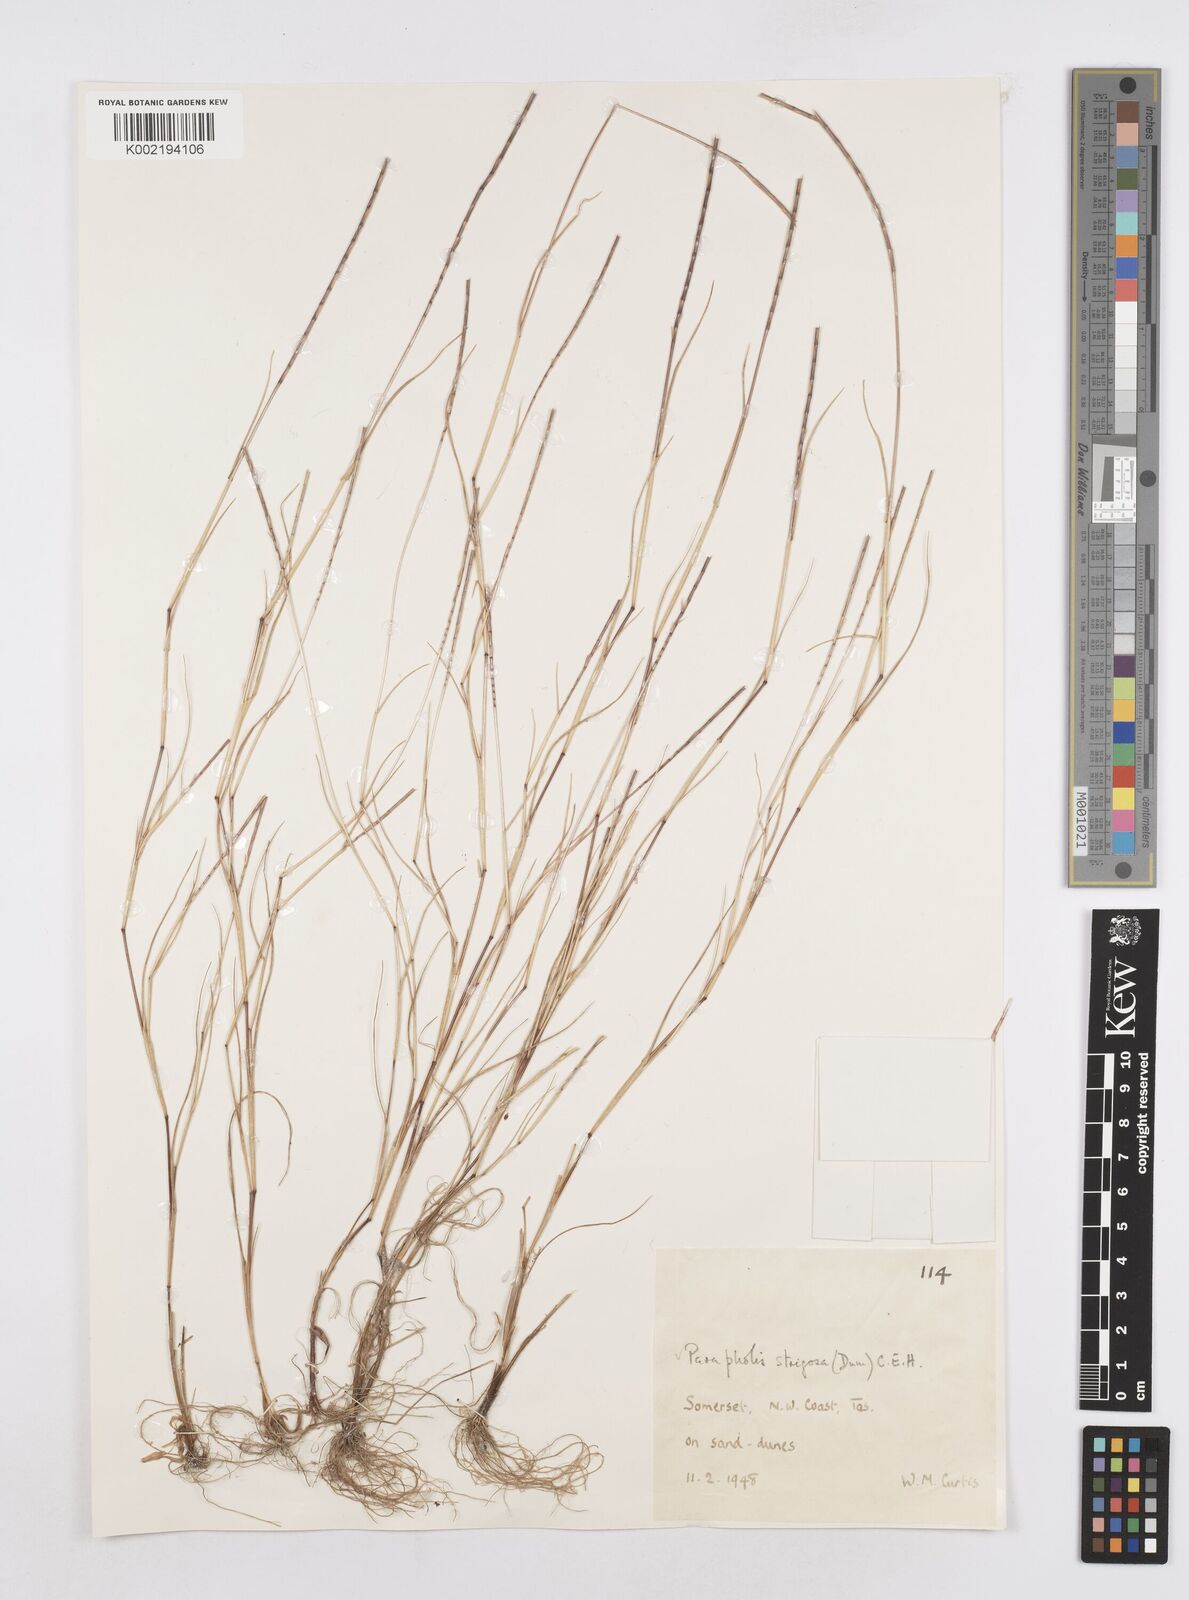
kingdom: Plantae
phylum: Tracheophyta
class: Liliopsida
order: Poales
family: Poaceae
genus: Parapholis
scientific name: Parapholis strigosa
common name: Hard-grass
